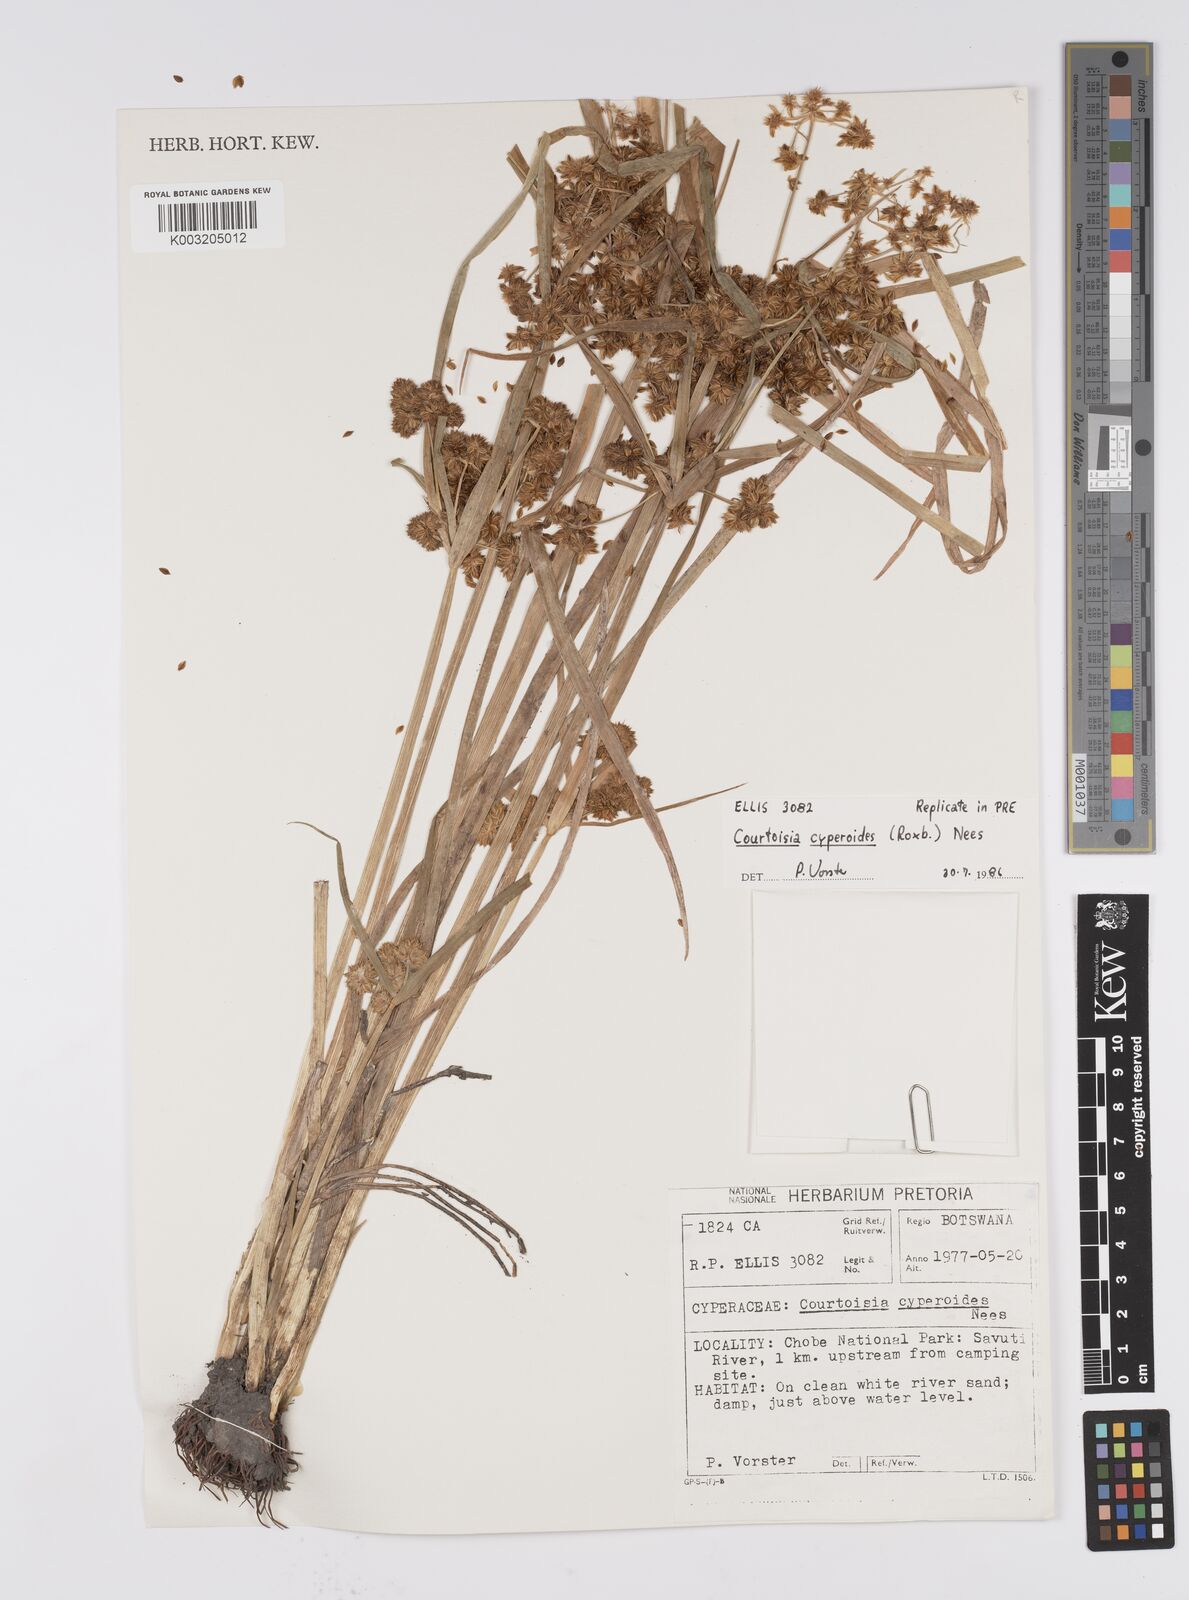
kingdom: Plantae
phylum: Tracheophyta
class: Liliopsida
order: Poales
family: Cyperaceae
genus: Cyperus
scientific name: Cyperus cyperoides
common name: Pacific island flat sedge
